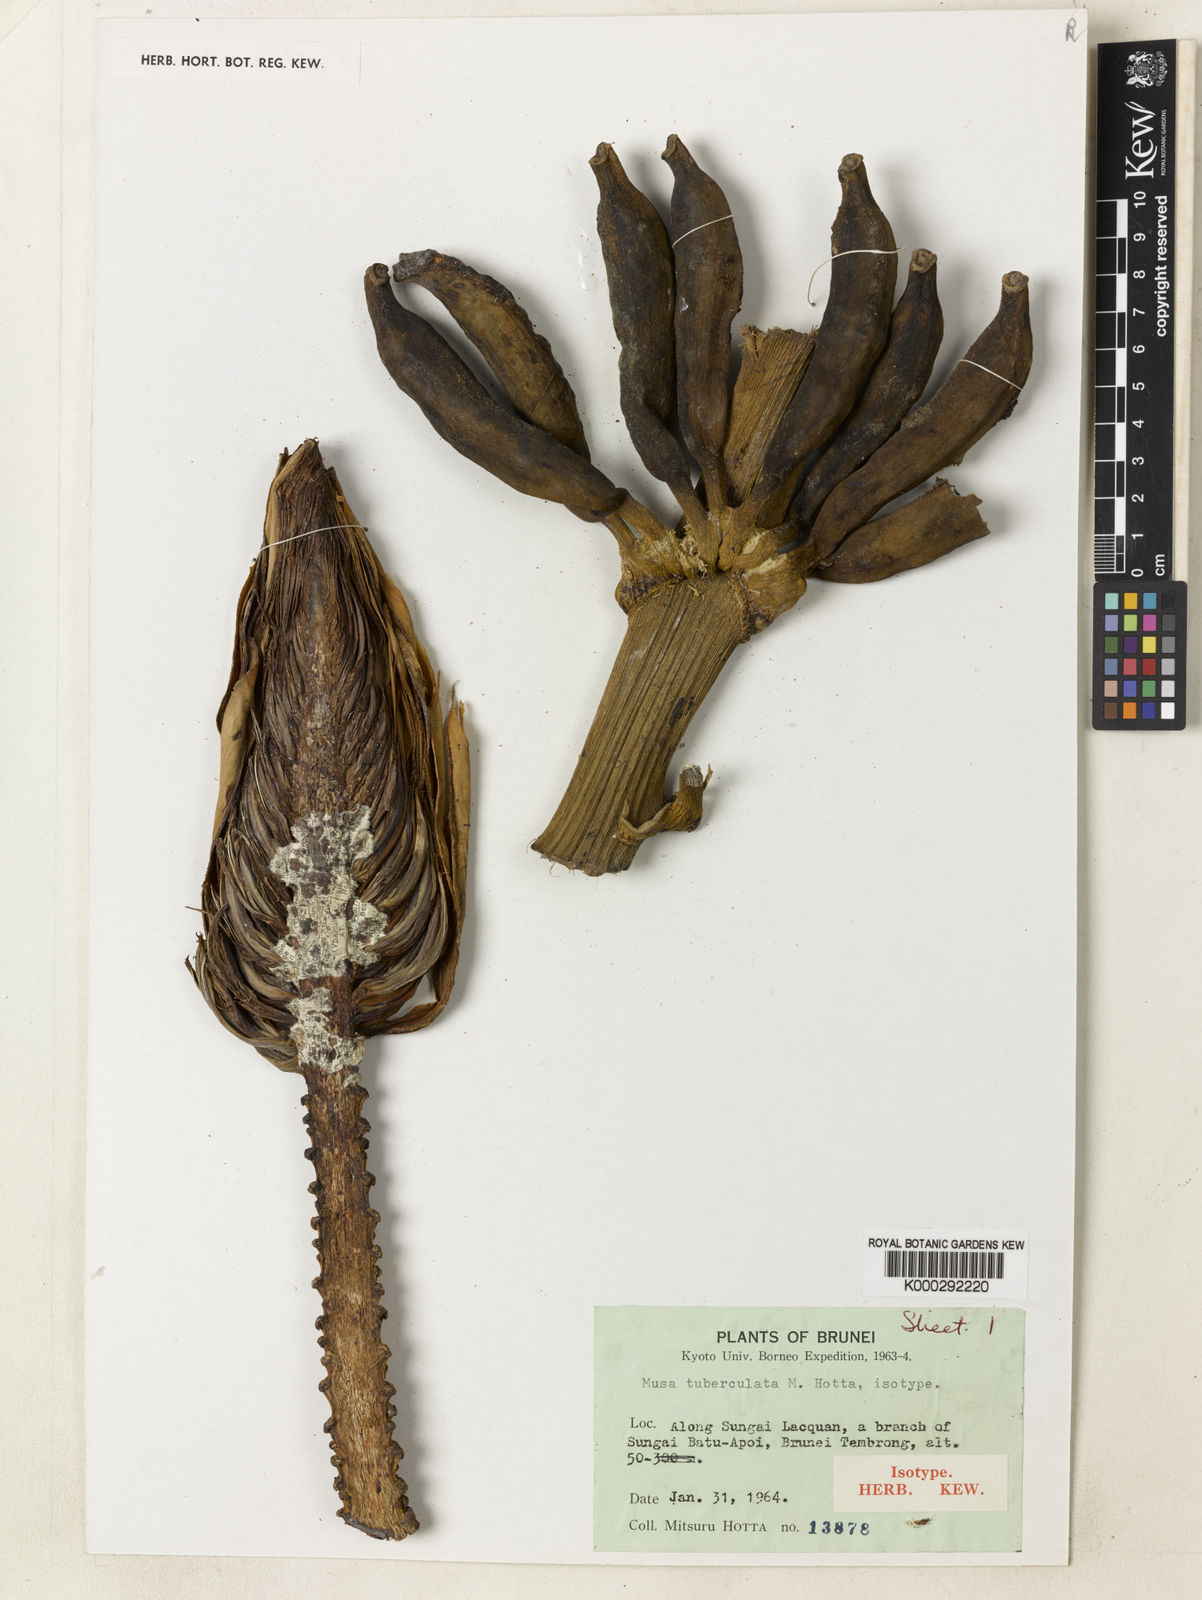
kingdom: Plantae
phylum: Tracheophyta
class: Liliopsida
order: Zingiberales
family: Musaceae
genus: Musa
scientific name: Musa tuberculata
